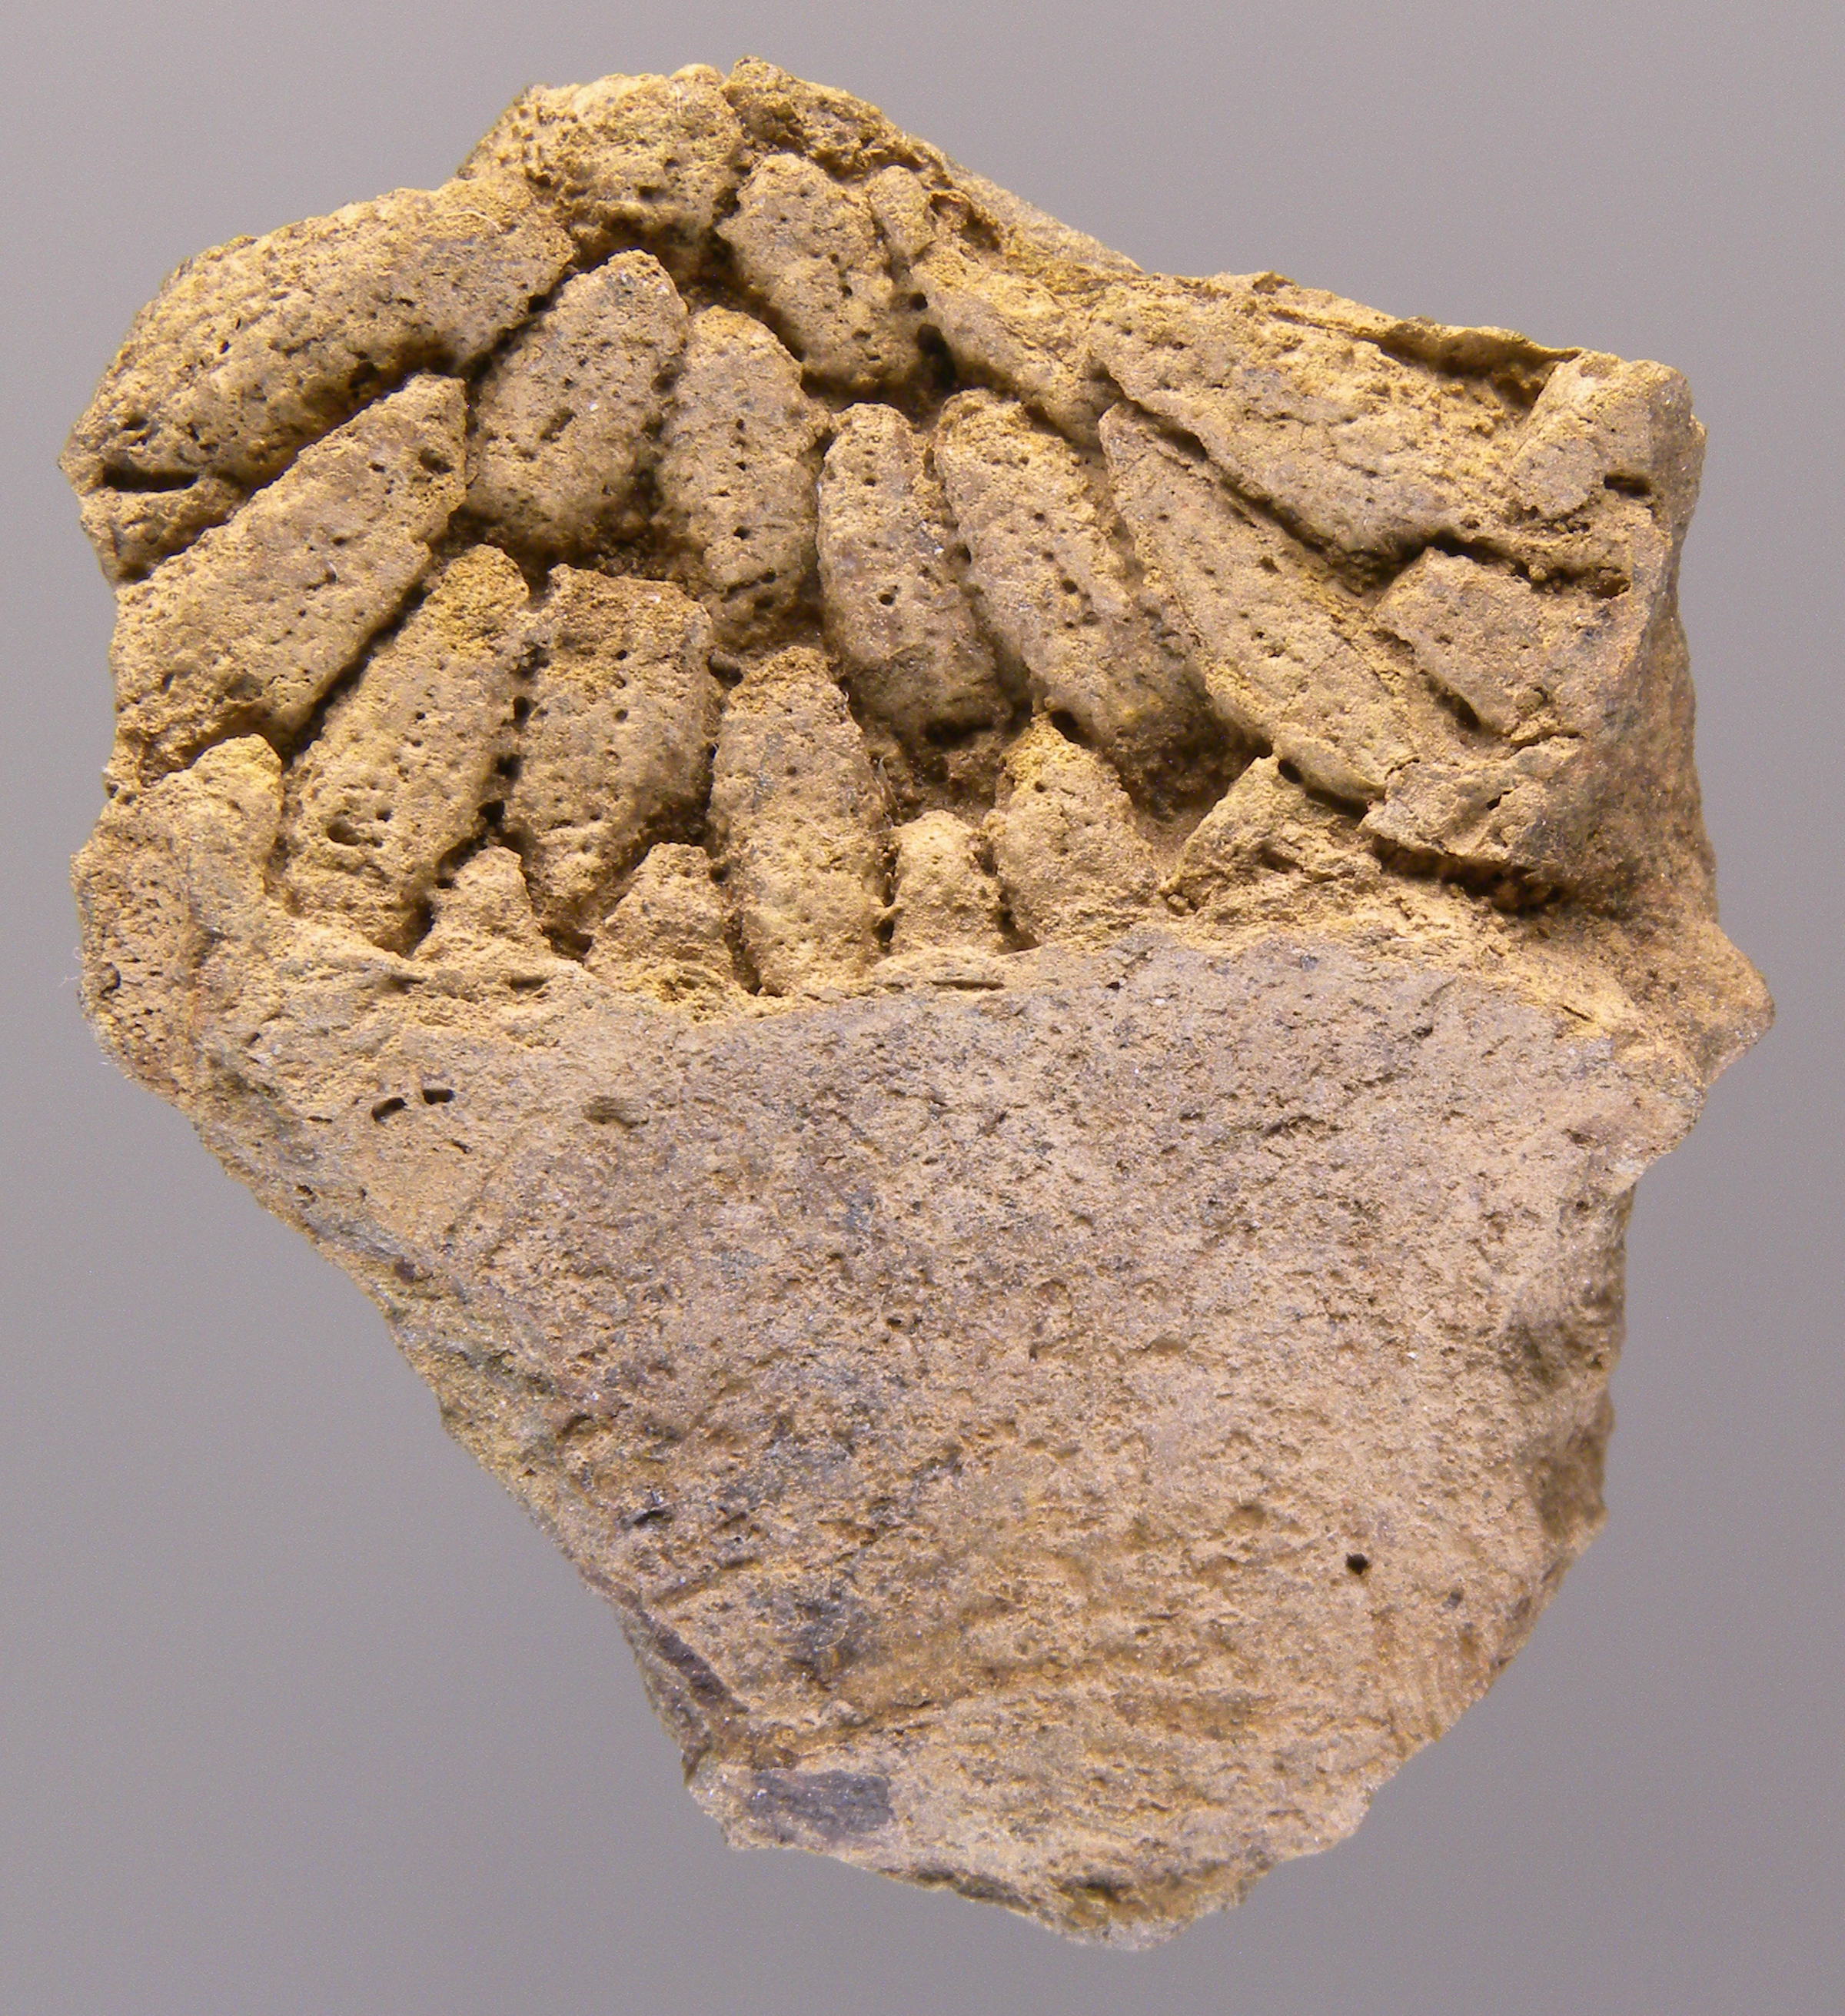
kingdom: Animalia
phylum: Cnidaria
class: Anthozoa
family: Micheliniidae
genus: Pleurodictyum
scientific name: Pleurodictyum
